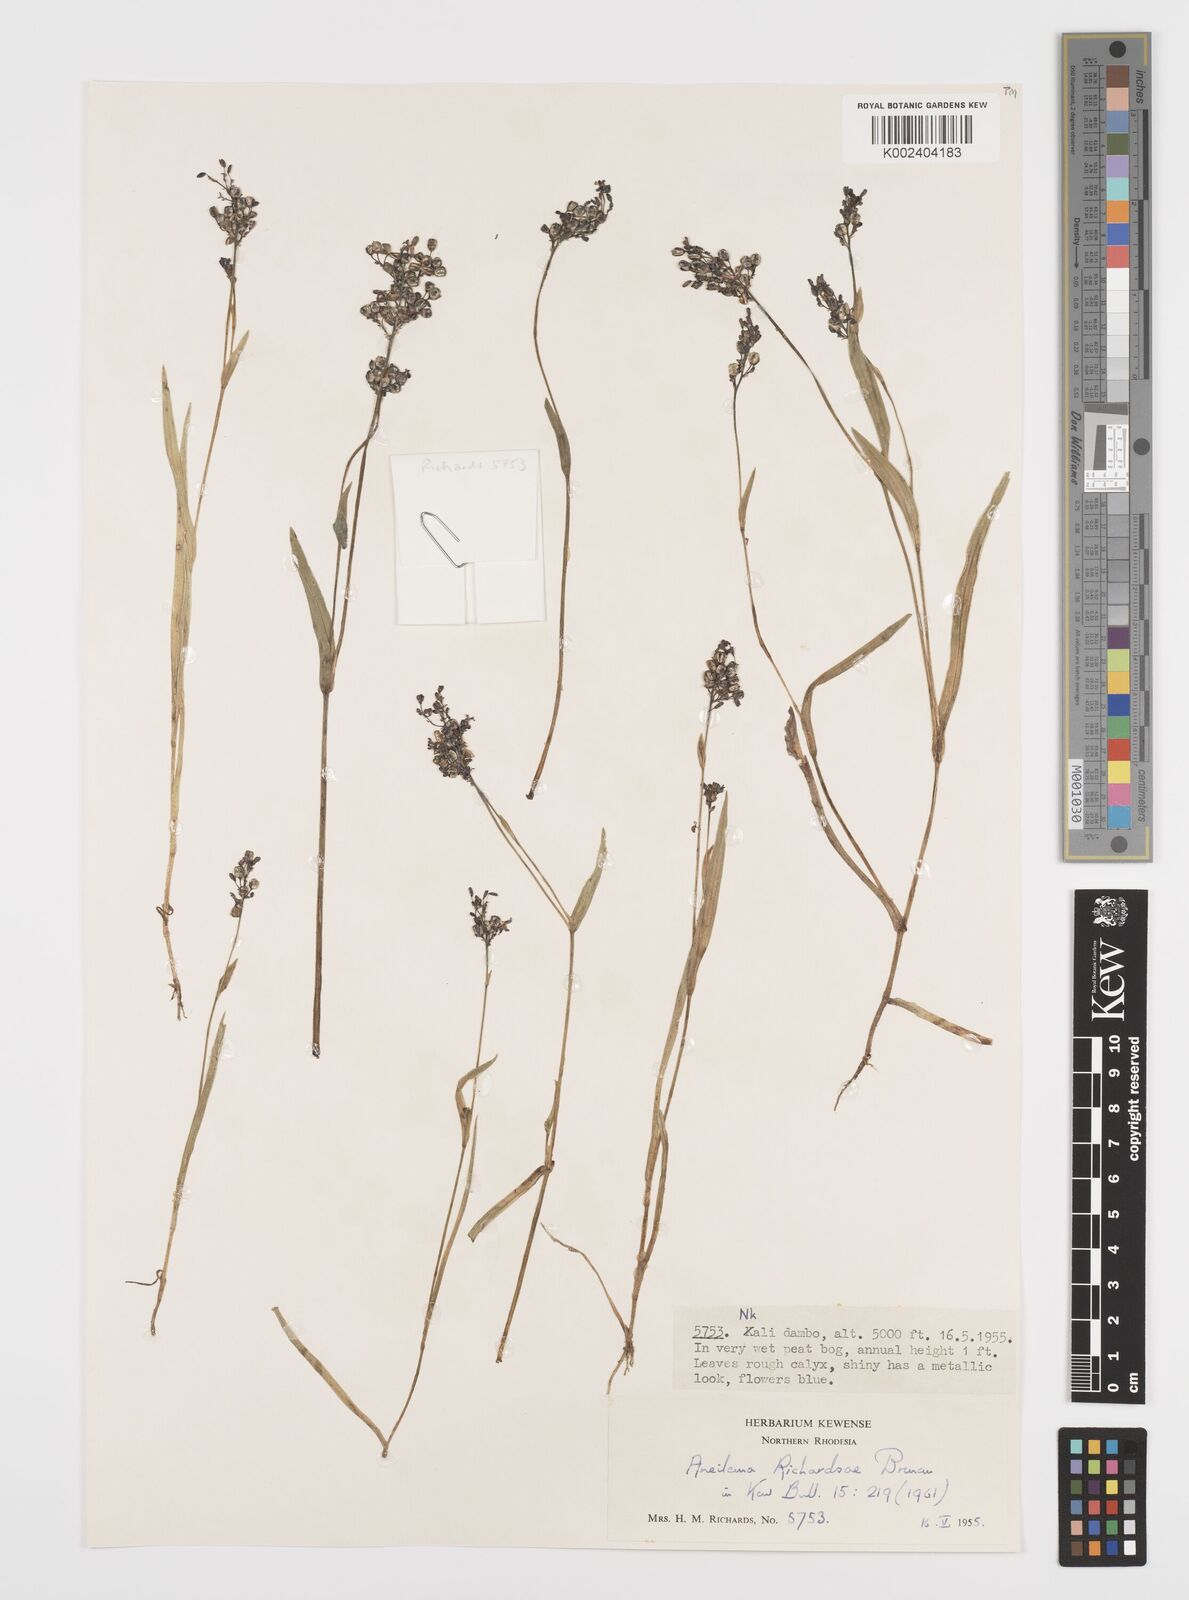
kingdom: Plantae
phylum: Tracheophyta
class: Liliopsida
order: Commelinales
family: Commelinaceae
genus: Aneilema
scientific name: Aneilema richardsiae
